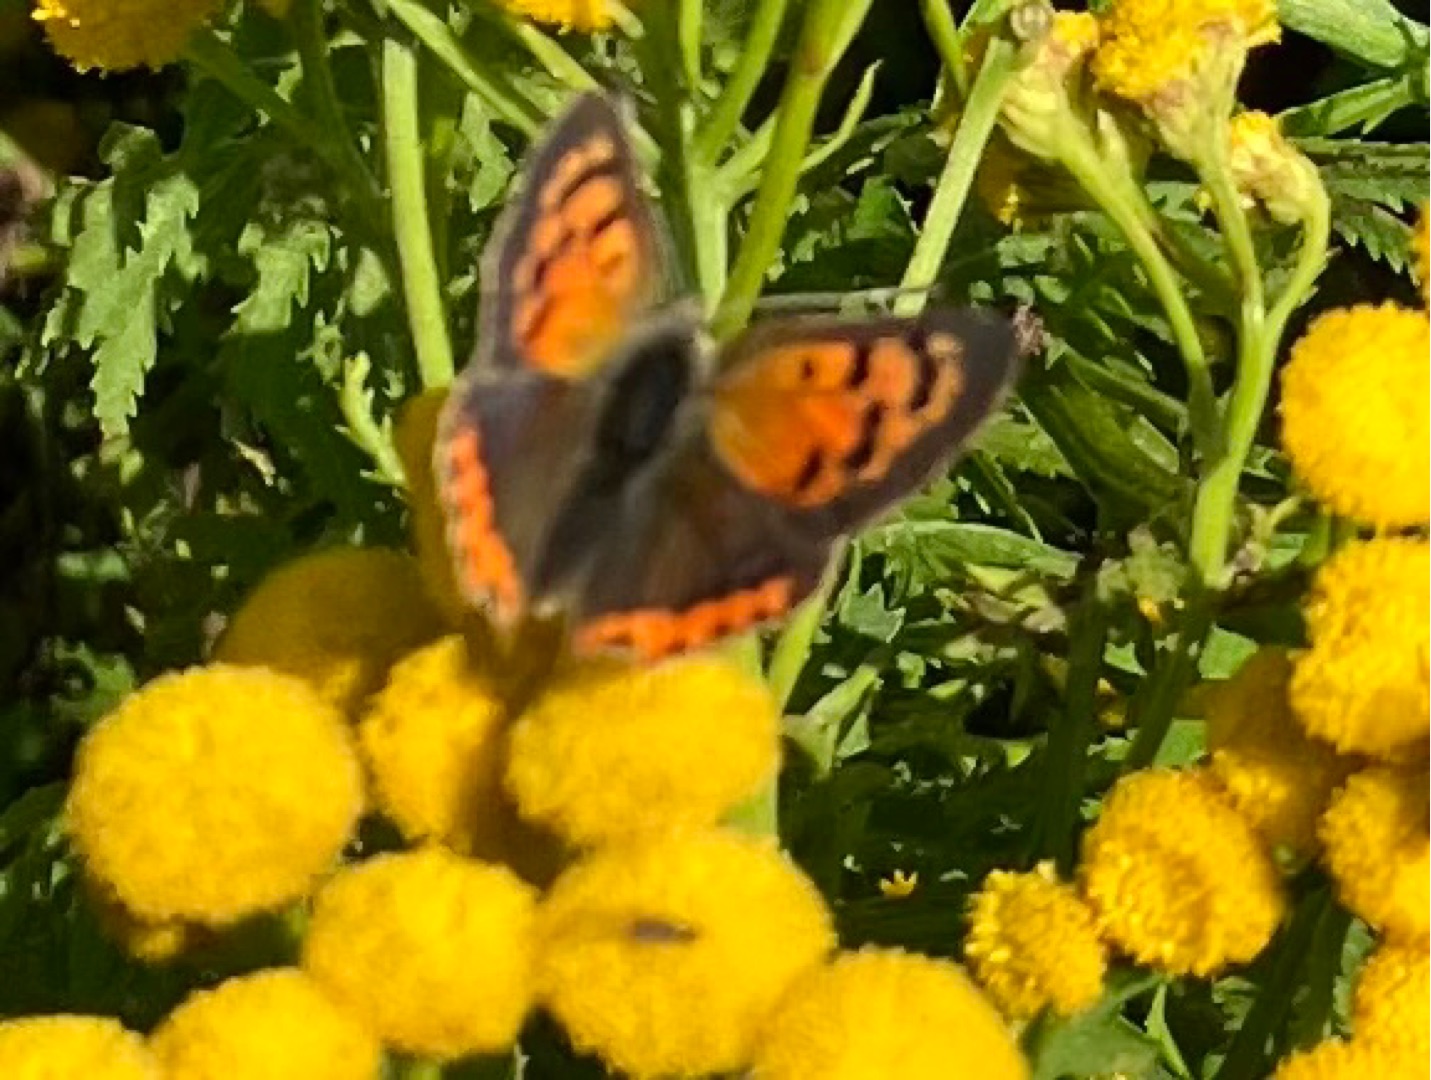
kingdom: Animalia
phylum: Arthropoda
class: Insecta
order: Lepidoptera
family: Lycaenidae
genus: Lycaena
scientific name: Lycaena phlaeas
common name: Lille ildfugl
